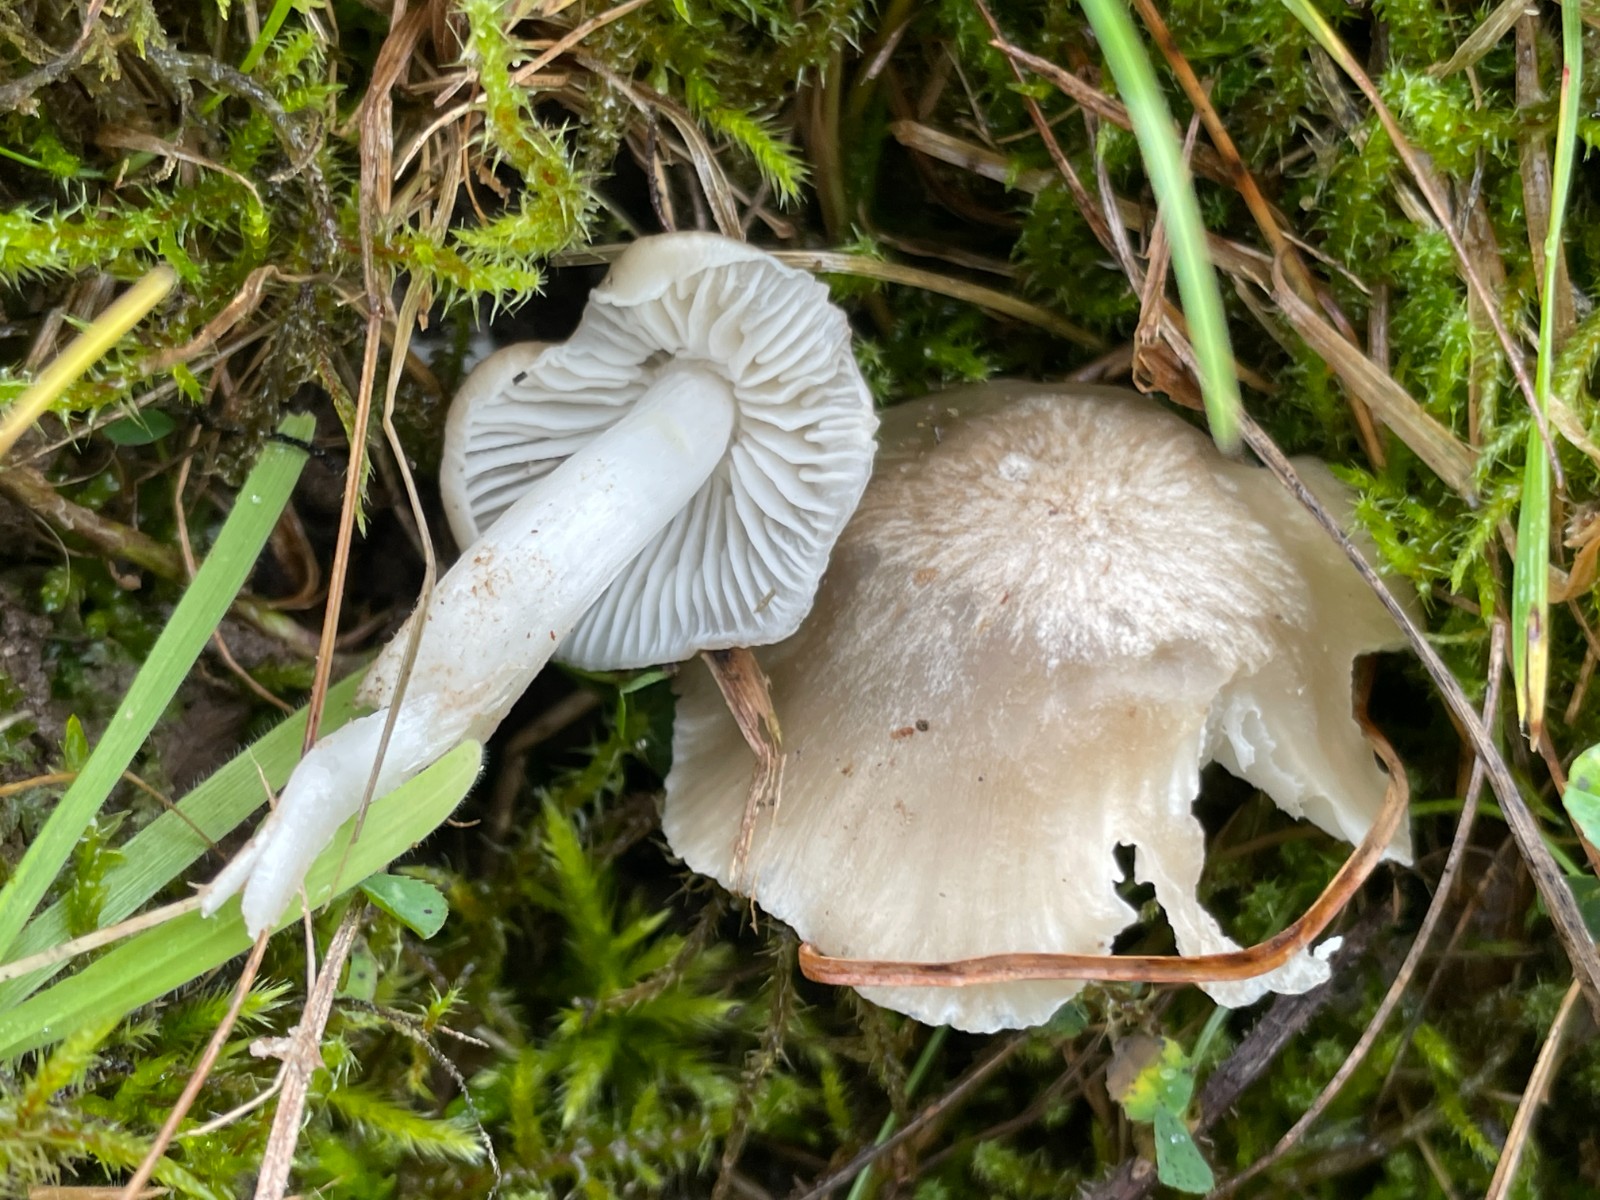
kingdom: Fungi
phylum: Basidiomycota
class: Agaricomycetes
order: Agaricales
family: Hygrophoraceae
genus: Cuphophyllus
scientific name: Cuphophyllus fornicatus
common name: gråbrun vokshat
